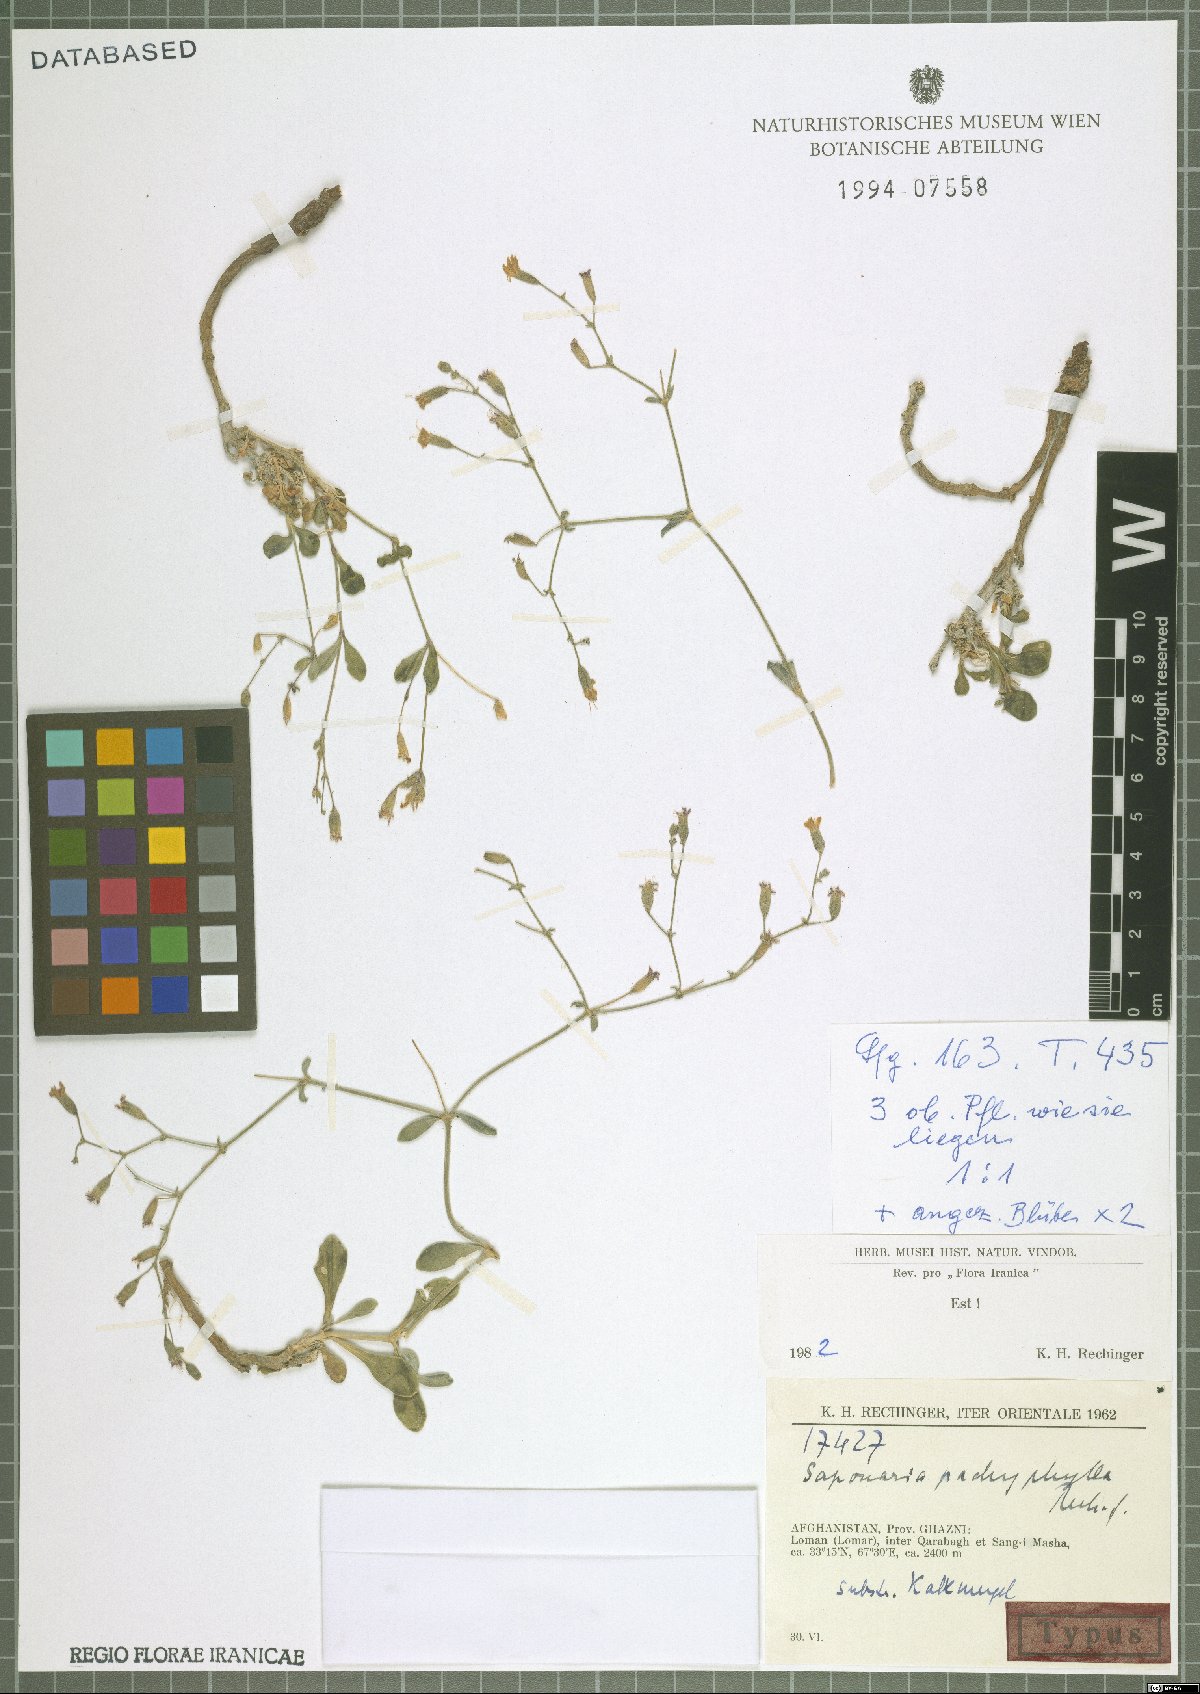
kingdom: Plantae
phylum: Tracheophyta
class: Magnoliopsida
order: Caryophyllales
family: Caryophyllaceae
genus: Saponaria
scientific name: Saponaria pachyphylla
